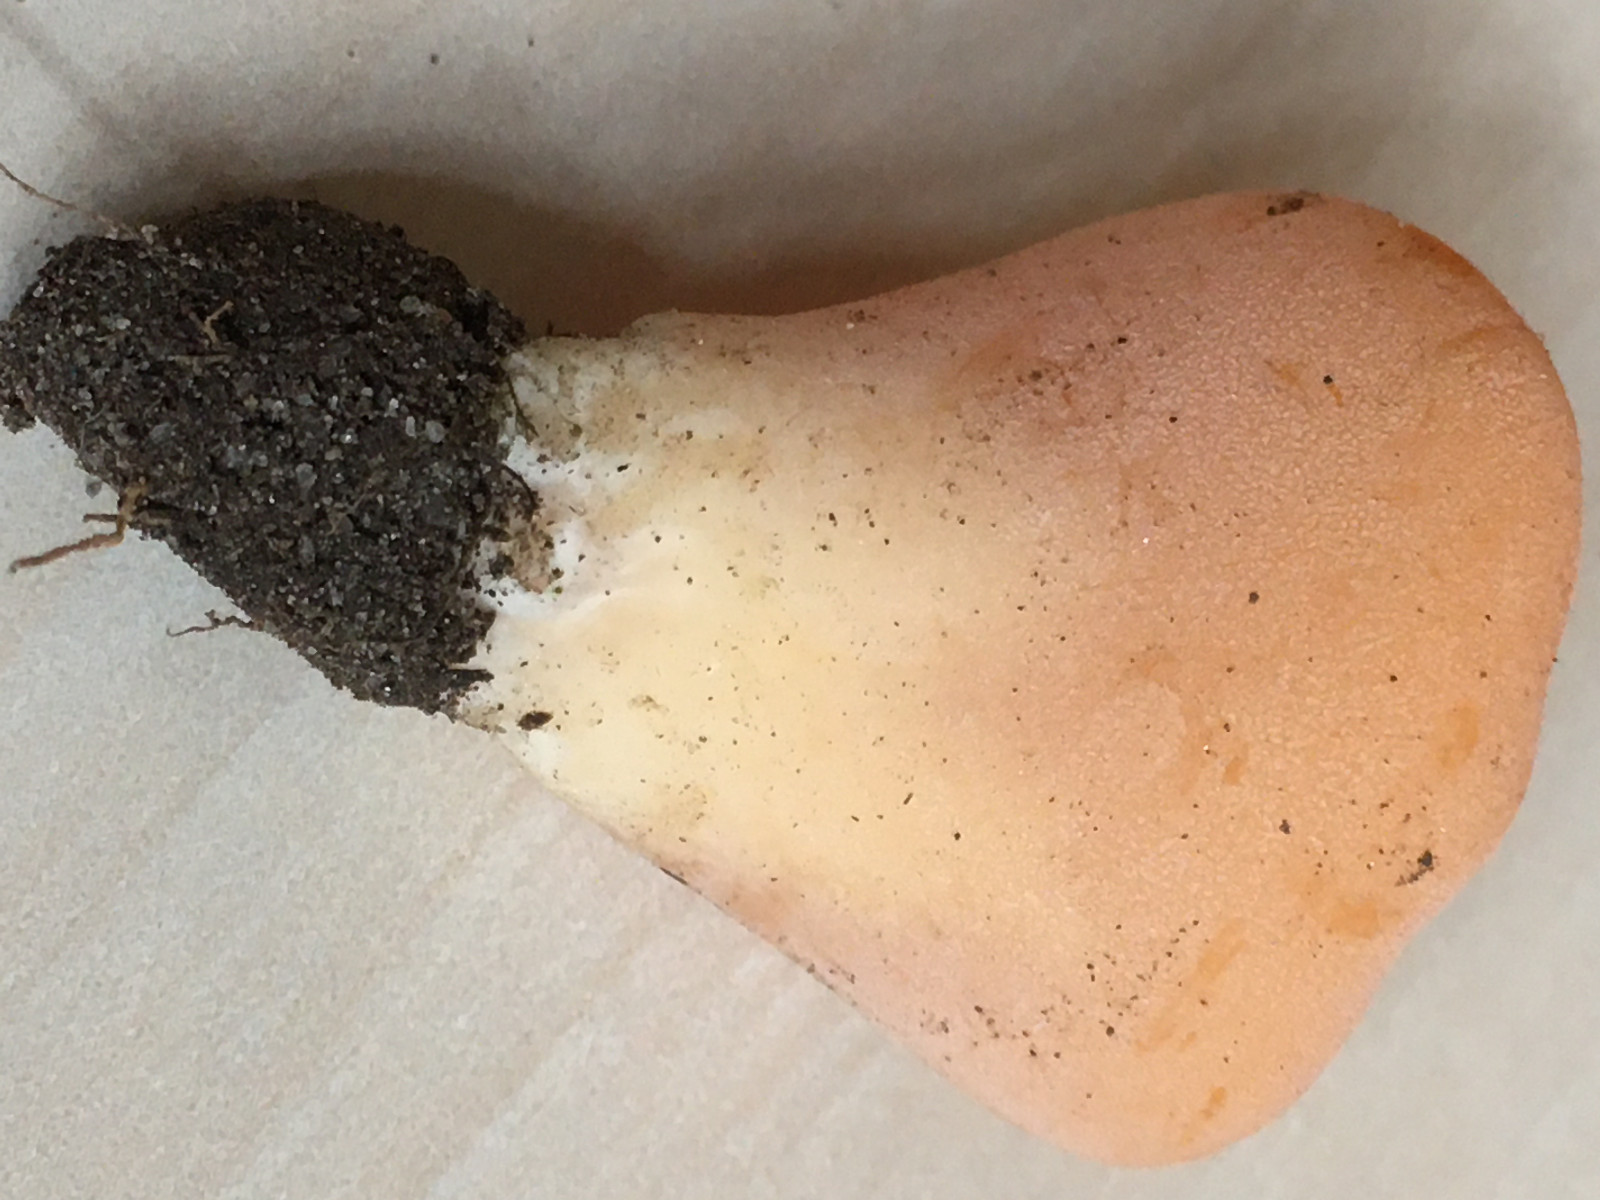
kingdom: Fungi
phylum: Ascomycota
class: Pezizomycetes
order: Pezizales
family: Pyronemataceae
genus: Aleuria
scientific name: Aleuria aurantia
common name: almindelig orangebæger
